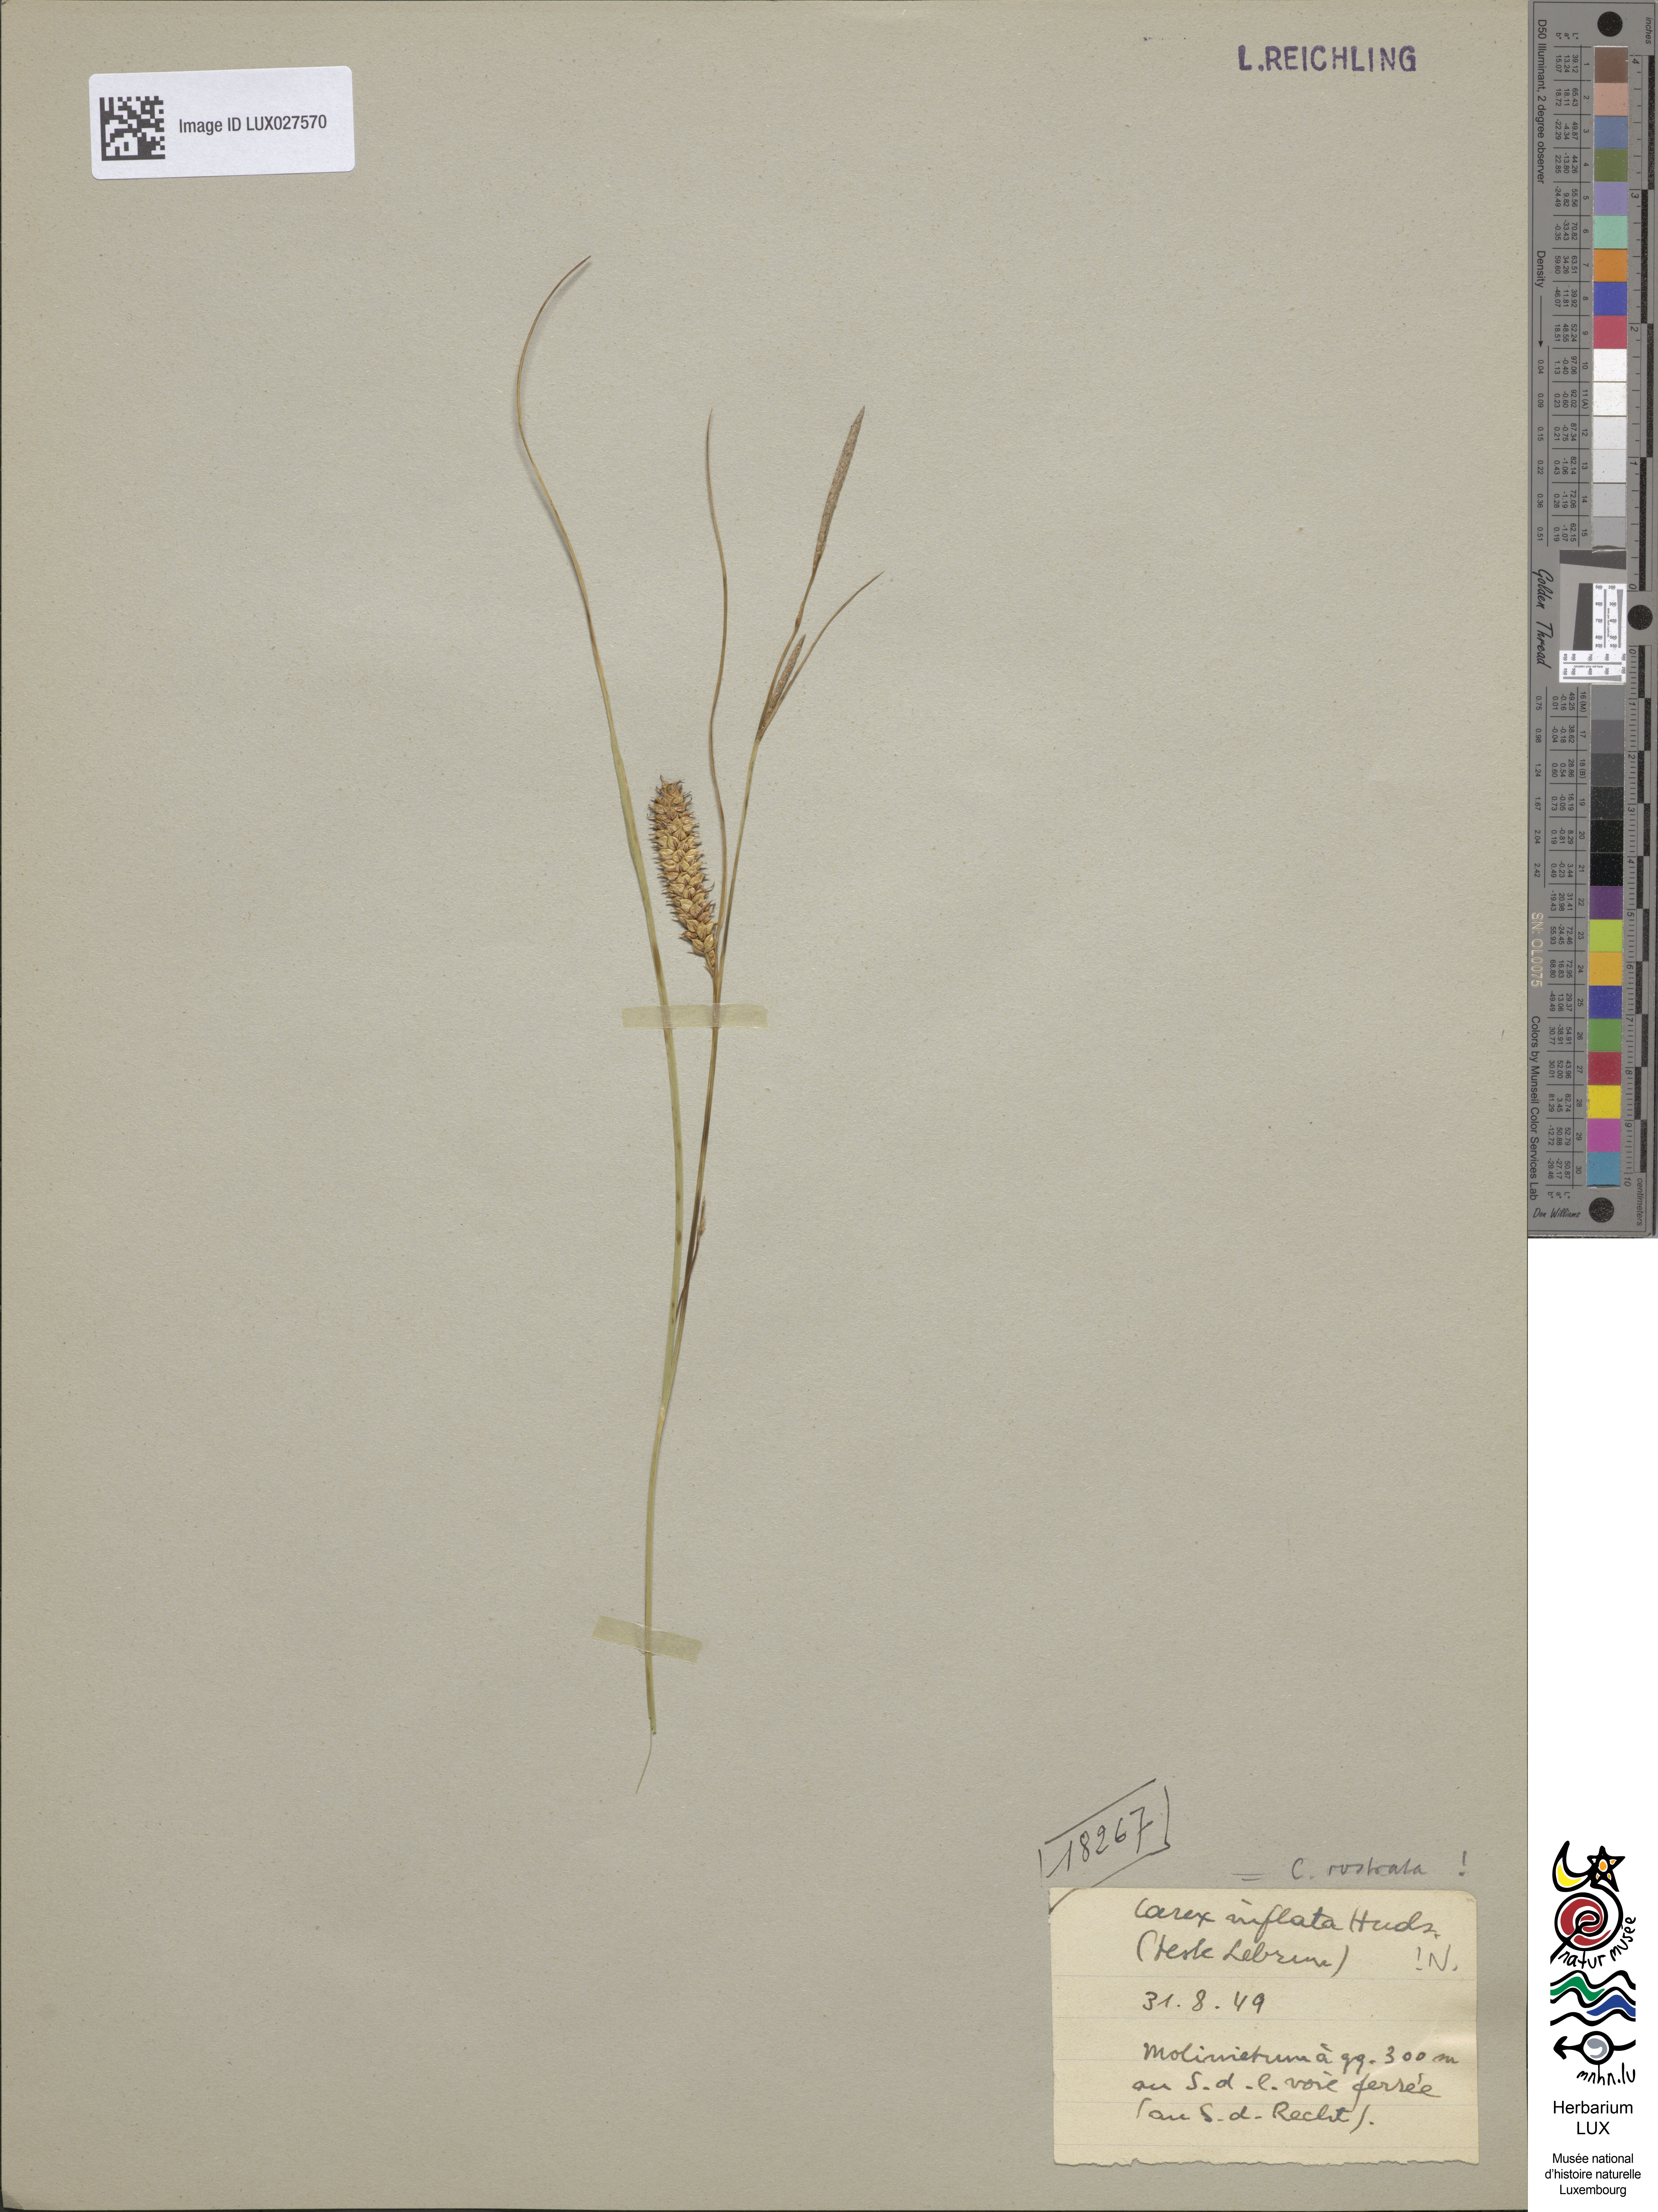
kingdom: Plantae
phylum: Tracheophyta
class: Liliopsida
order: Poales
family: Cyperaceae
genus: Carex
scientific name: Carex vesicaria
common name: Bladder-sedge
